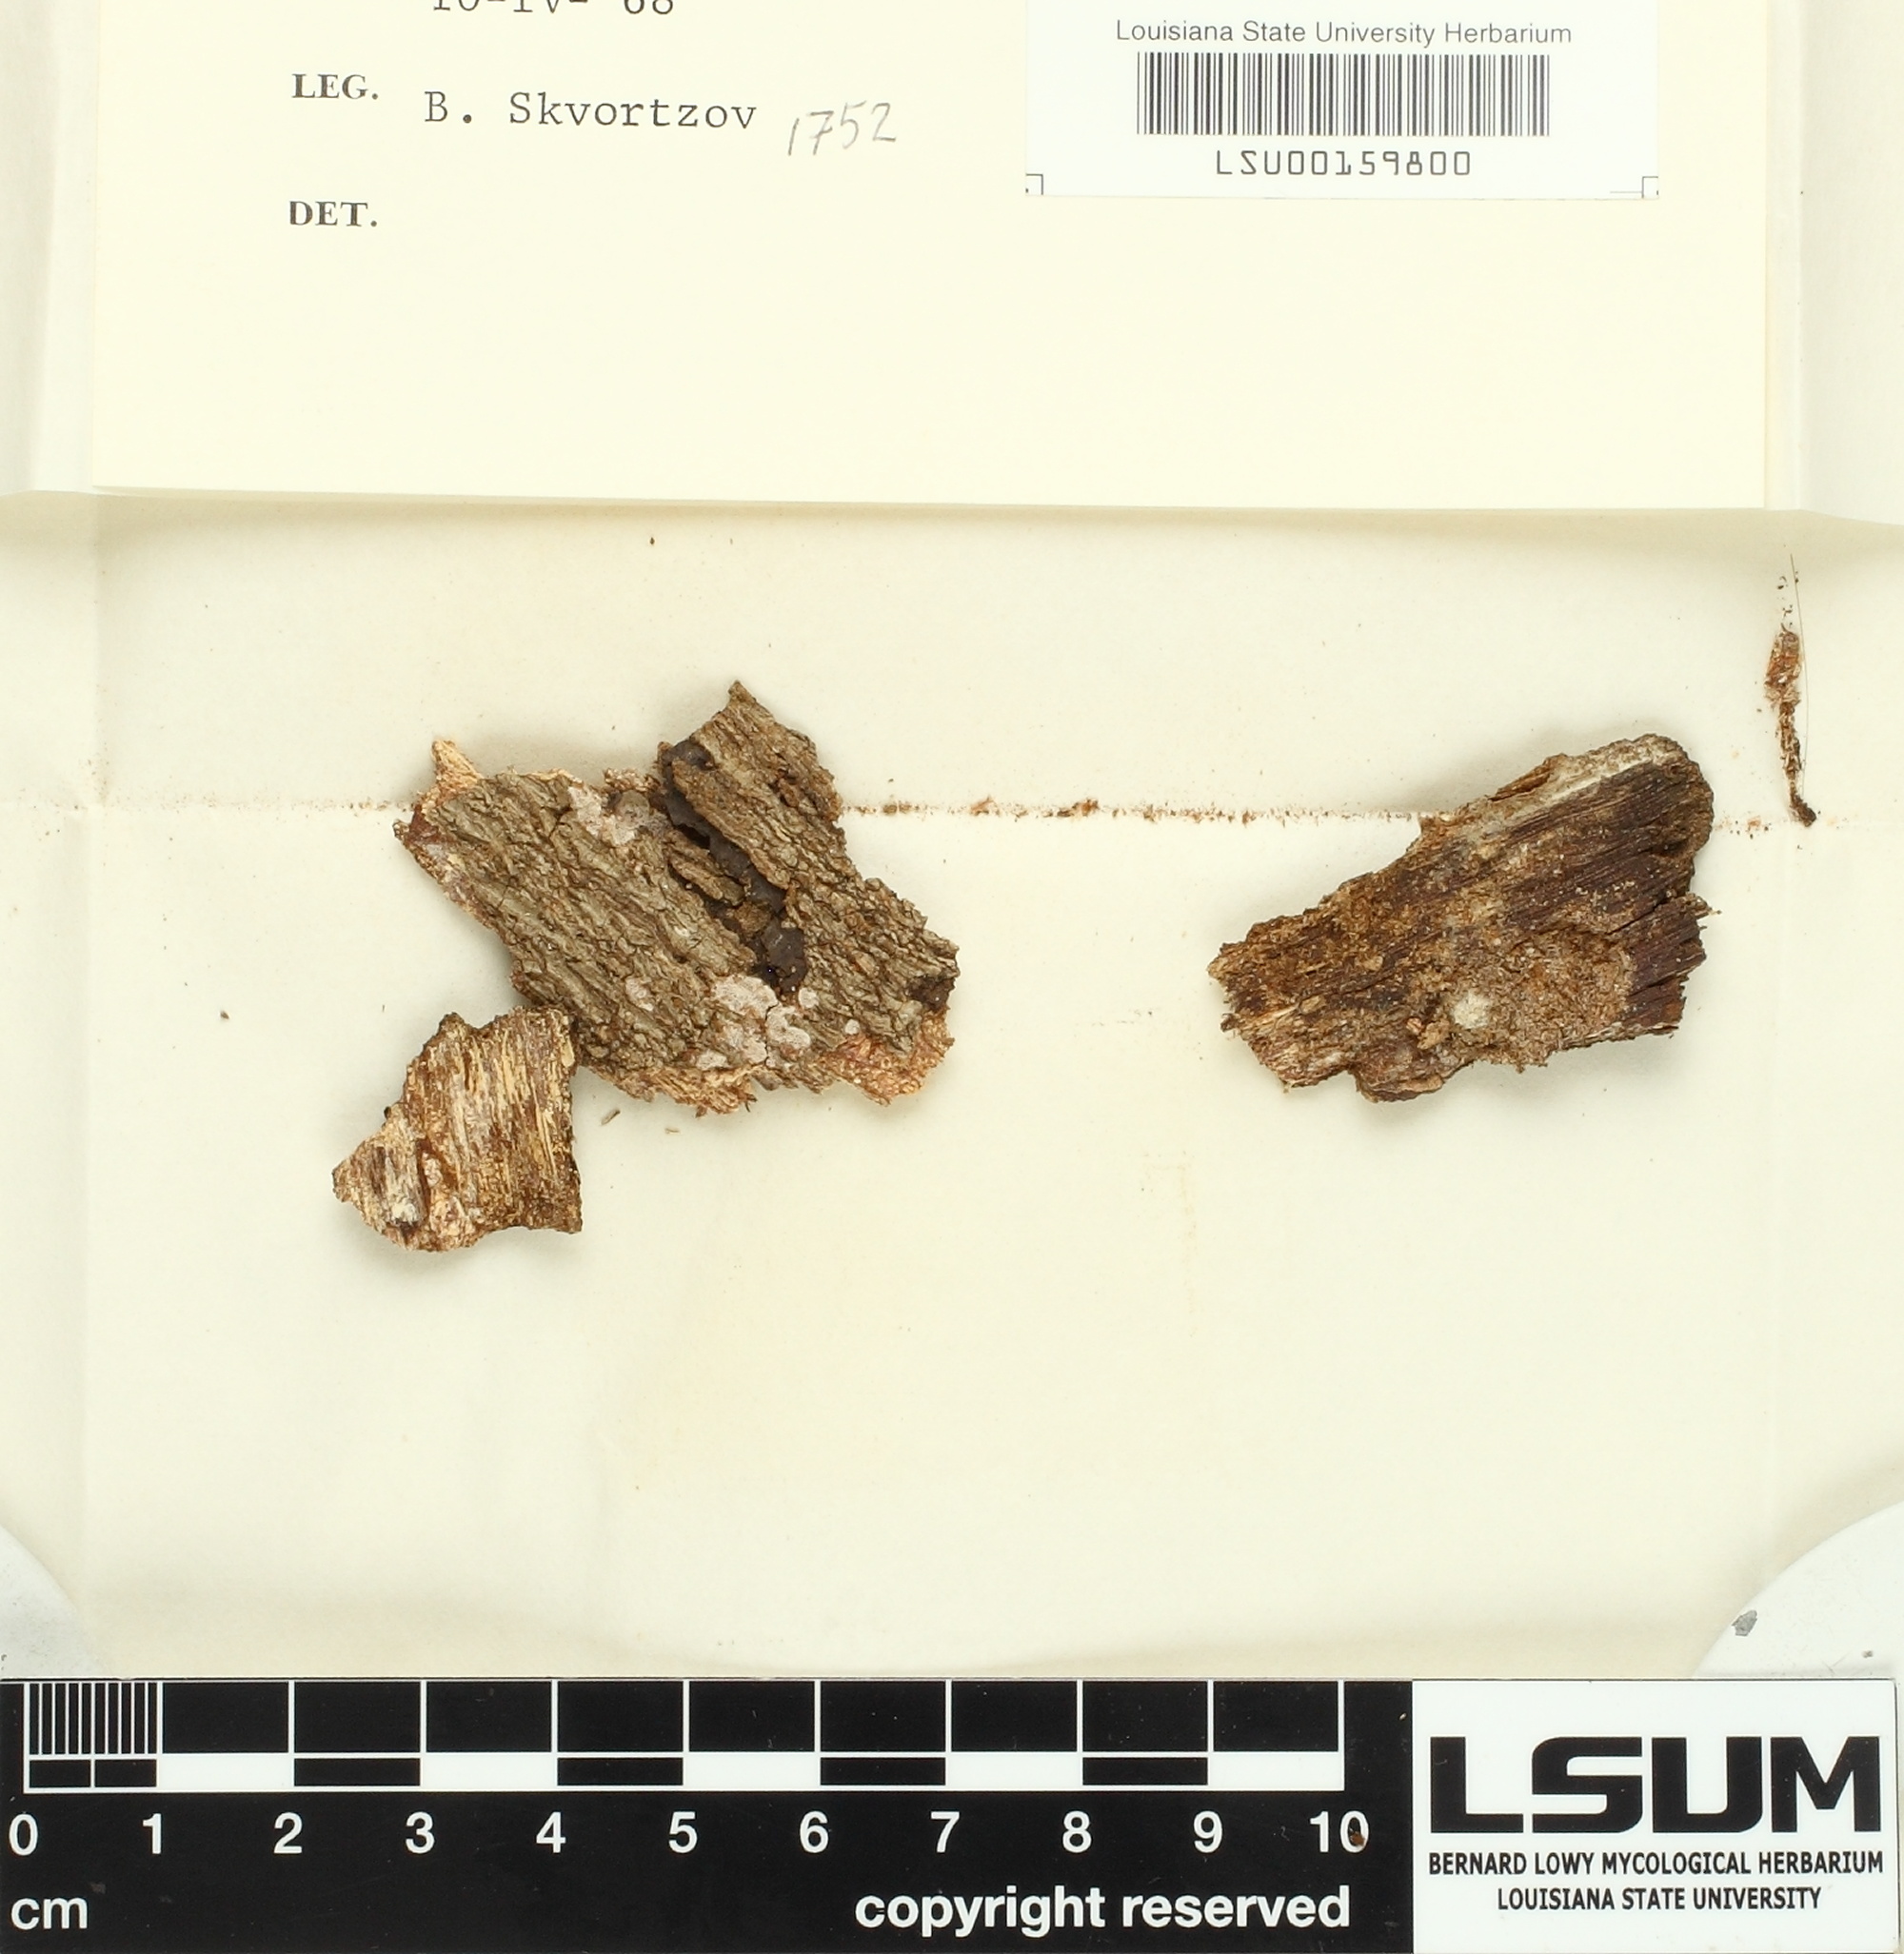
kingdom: Fungi
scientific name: Fungi
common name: Fungi
